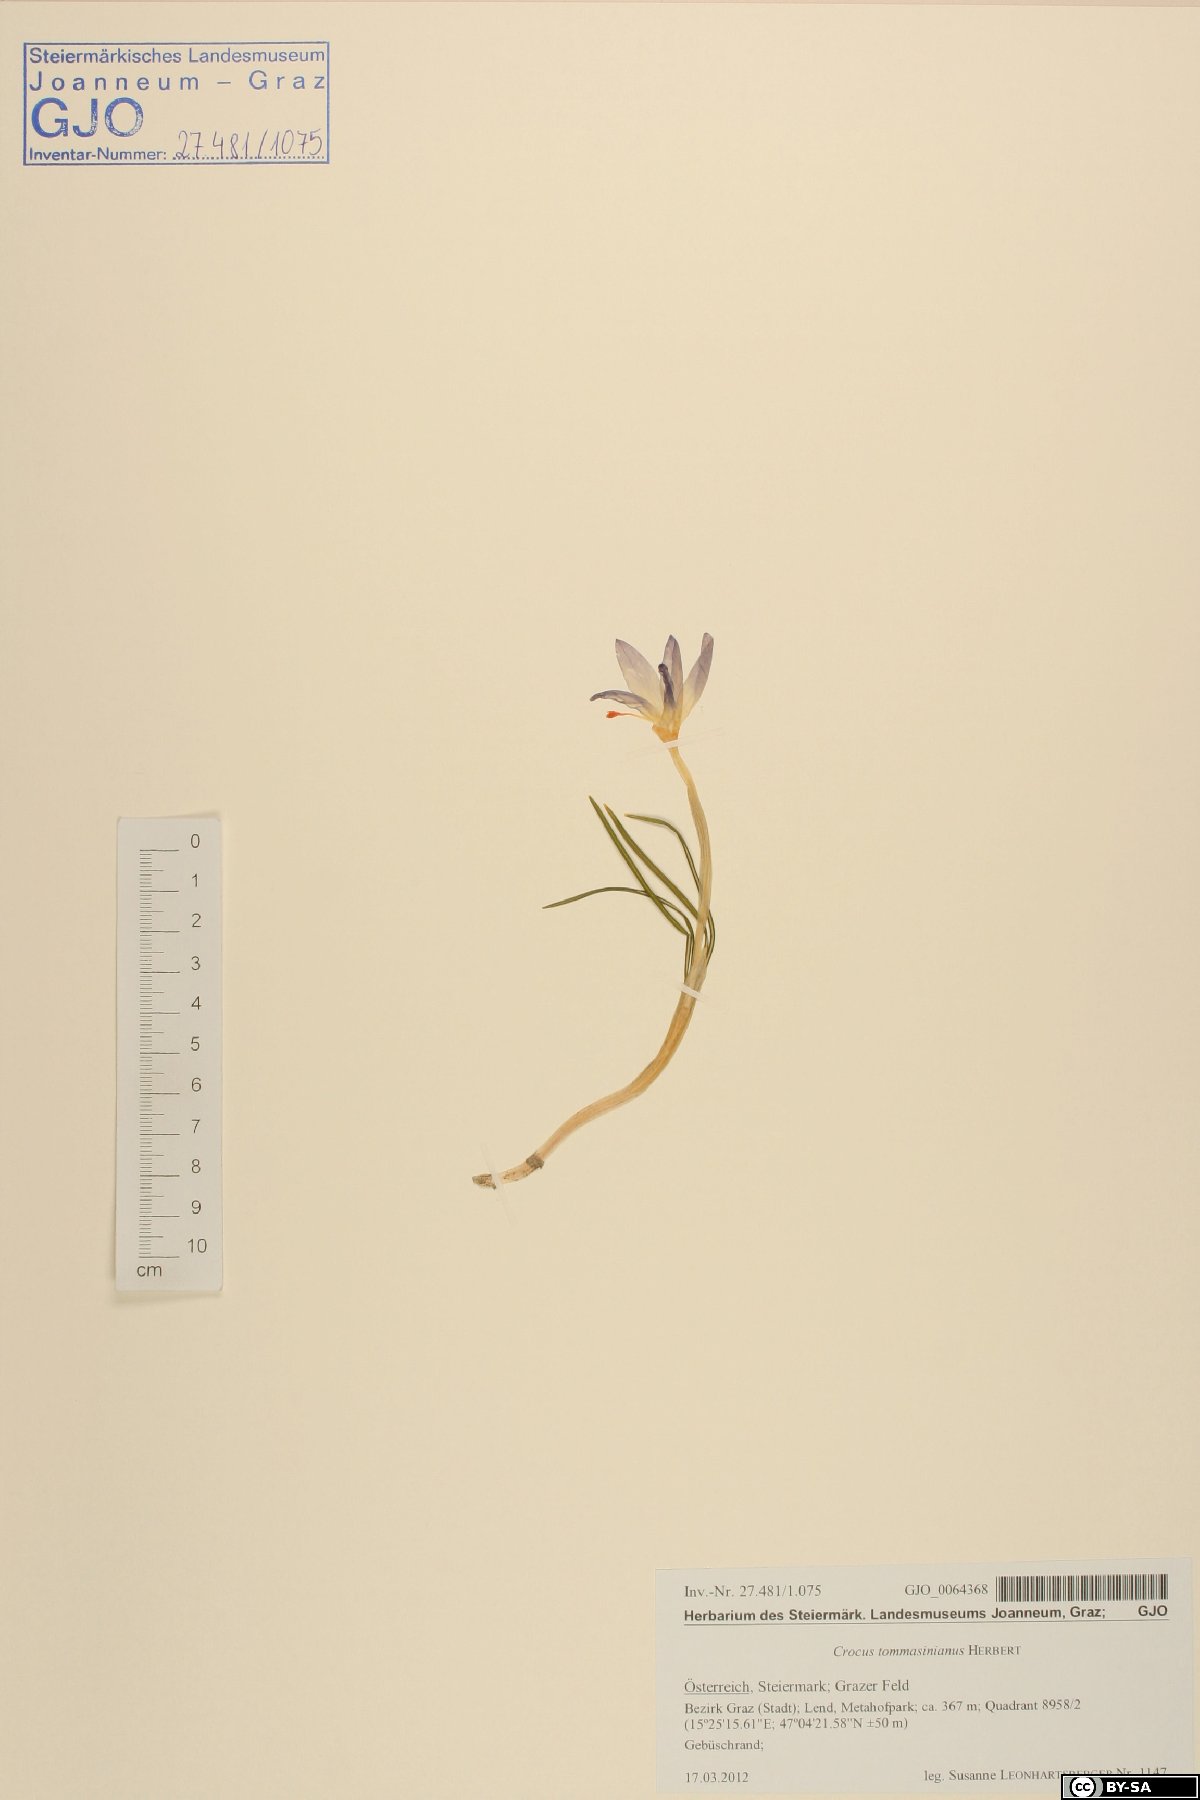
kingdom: Plantae
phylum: Tracheophyta
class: Liliopsida
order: Asparagales
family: Iridaceae
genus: Crocus
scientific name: Crocus tommasinianus
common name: Early crocus
